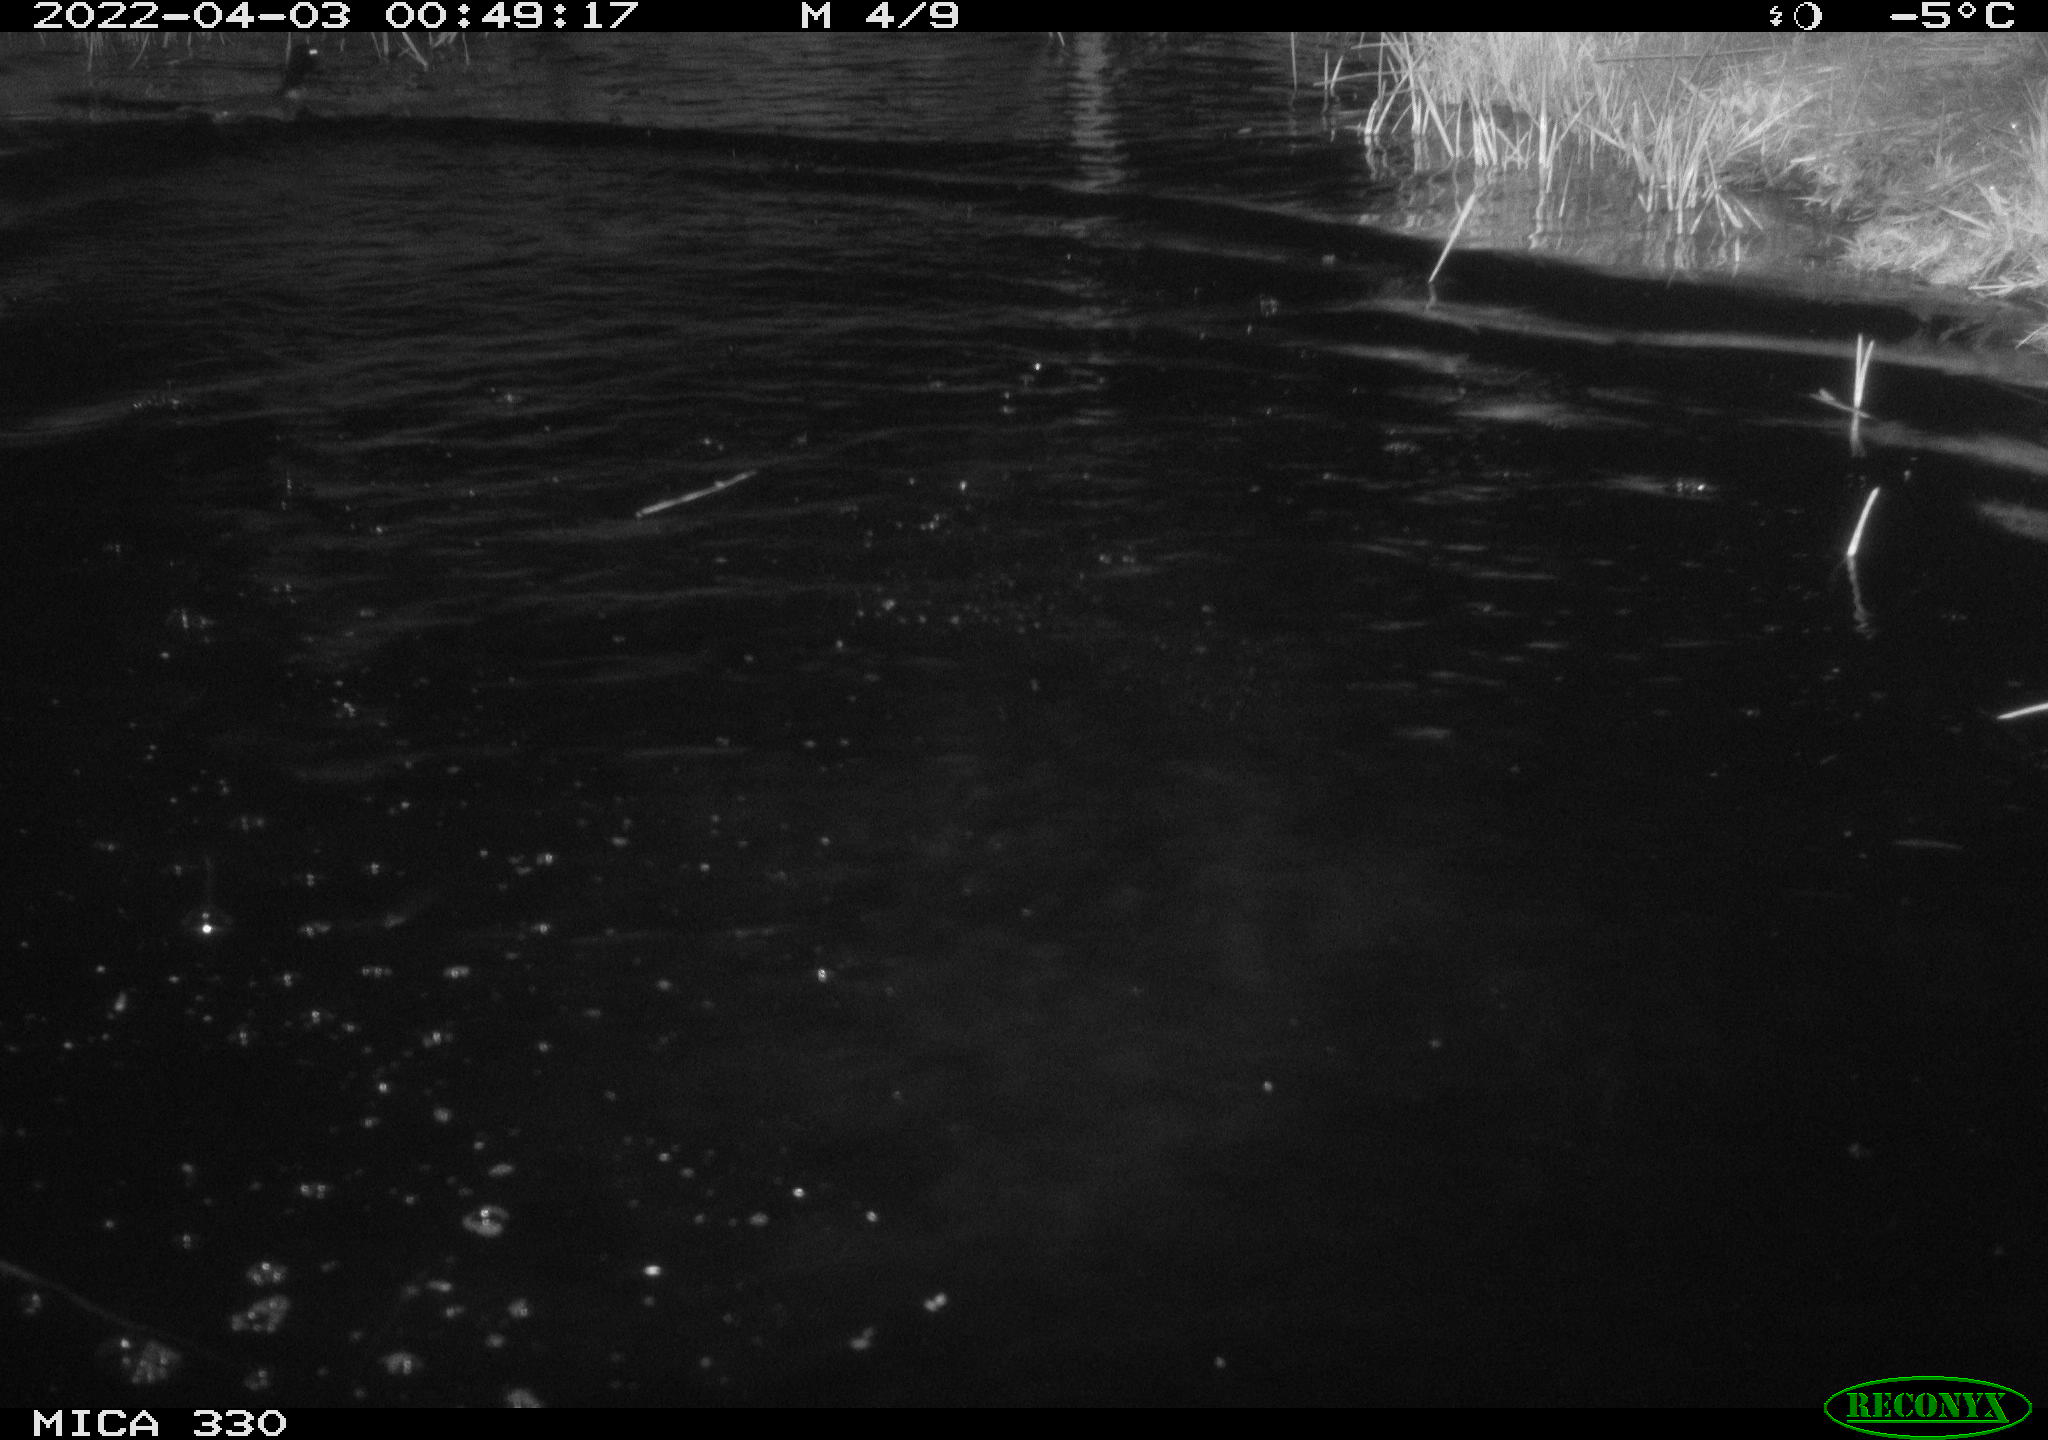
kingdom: Animalia
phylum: Chordata
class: Aves
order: Anseriformes
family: Anatidae
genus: Anas
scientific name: Anas platyrhynchos
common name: Mallard
